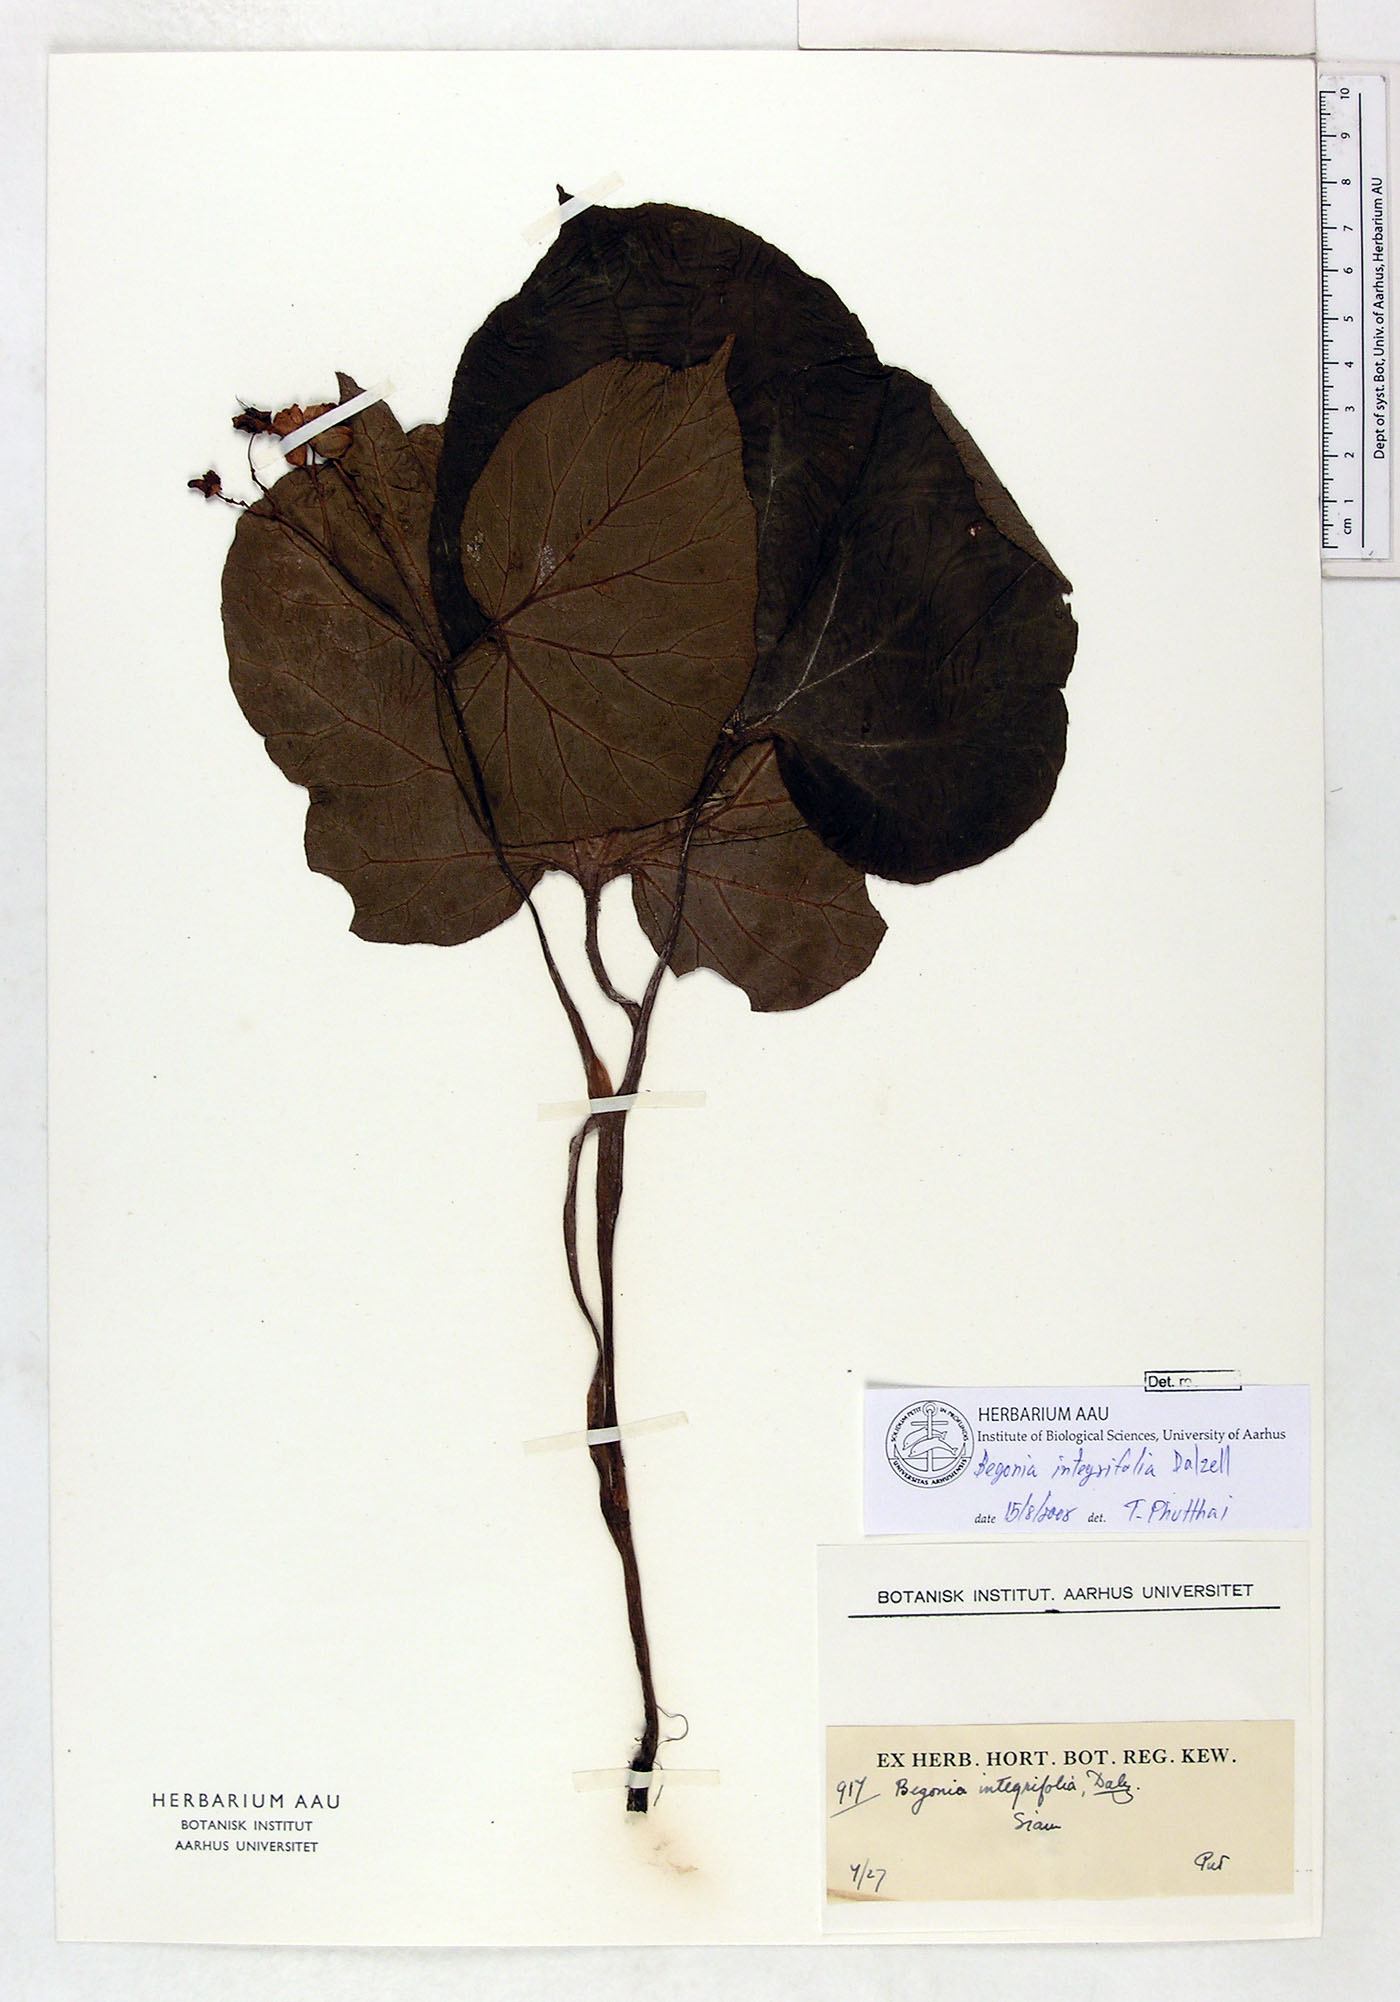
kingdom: Plantae
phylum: Tracheophyta
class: Magnoliopsida
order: Cucurbitales
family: Begoniaceae
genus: Begonia
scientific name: Begonia integrifolia
